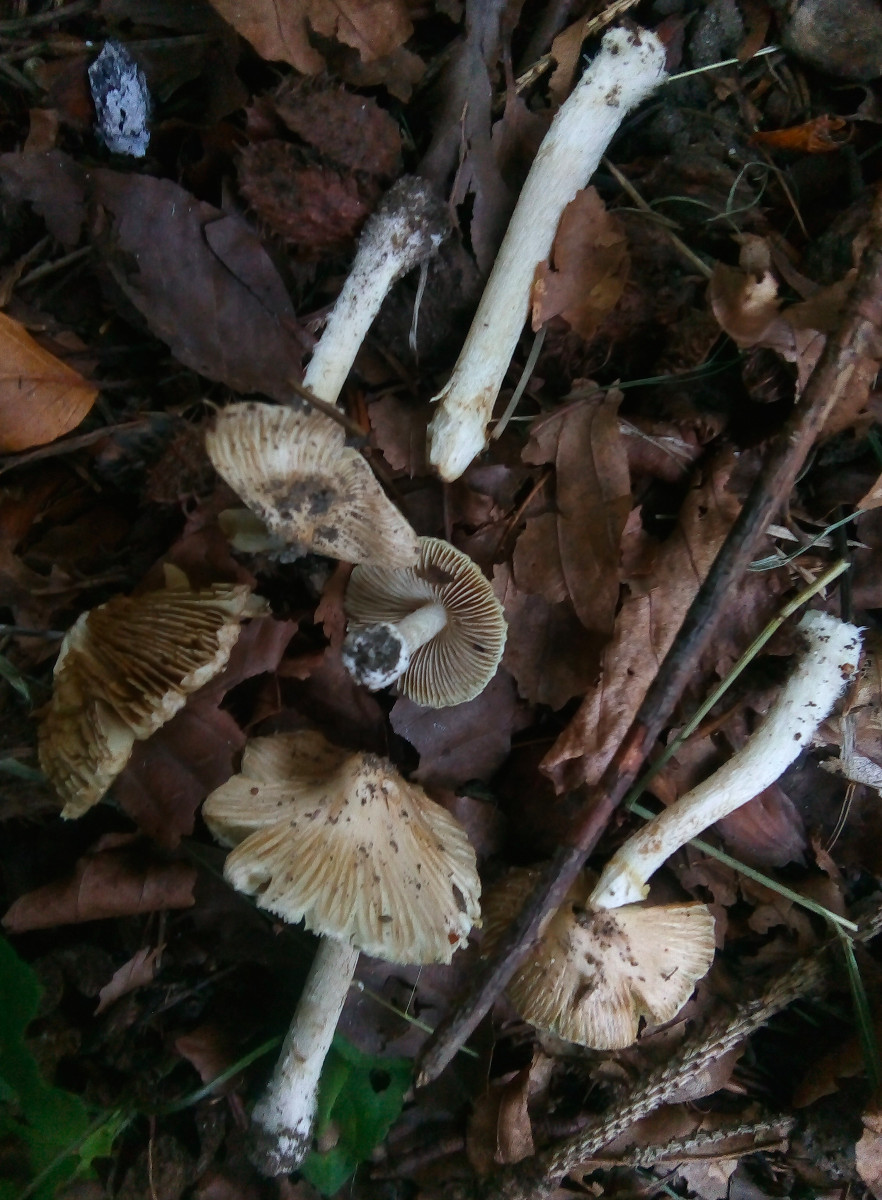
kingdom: Fungi
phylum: Basidiomycota
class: Agaricomycetes
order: Agaricales
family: Inocybaceae
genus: Pseudosperma
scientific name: Pseudosperma
